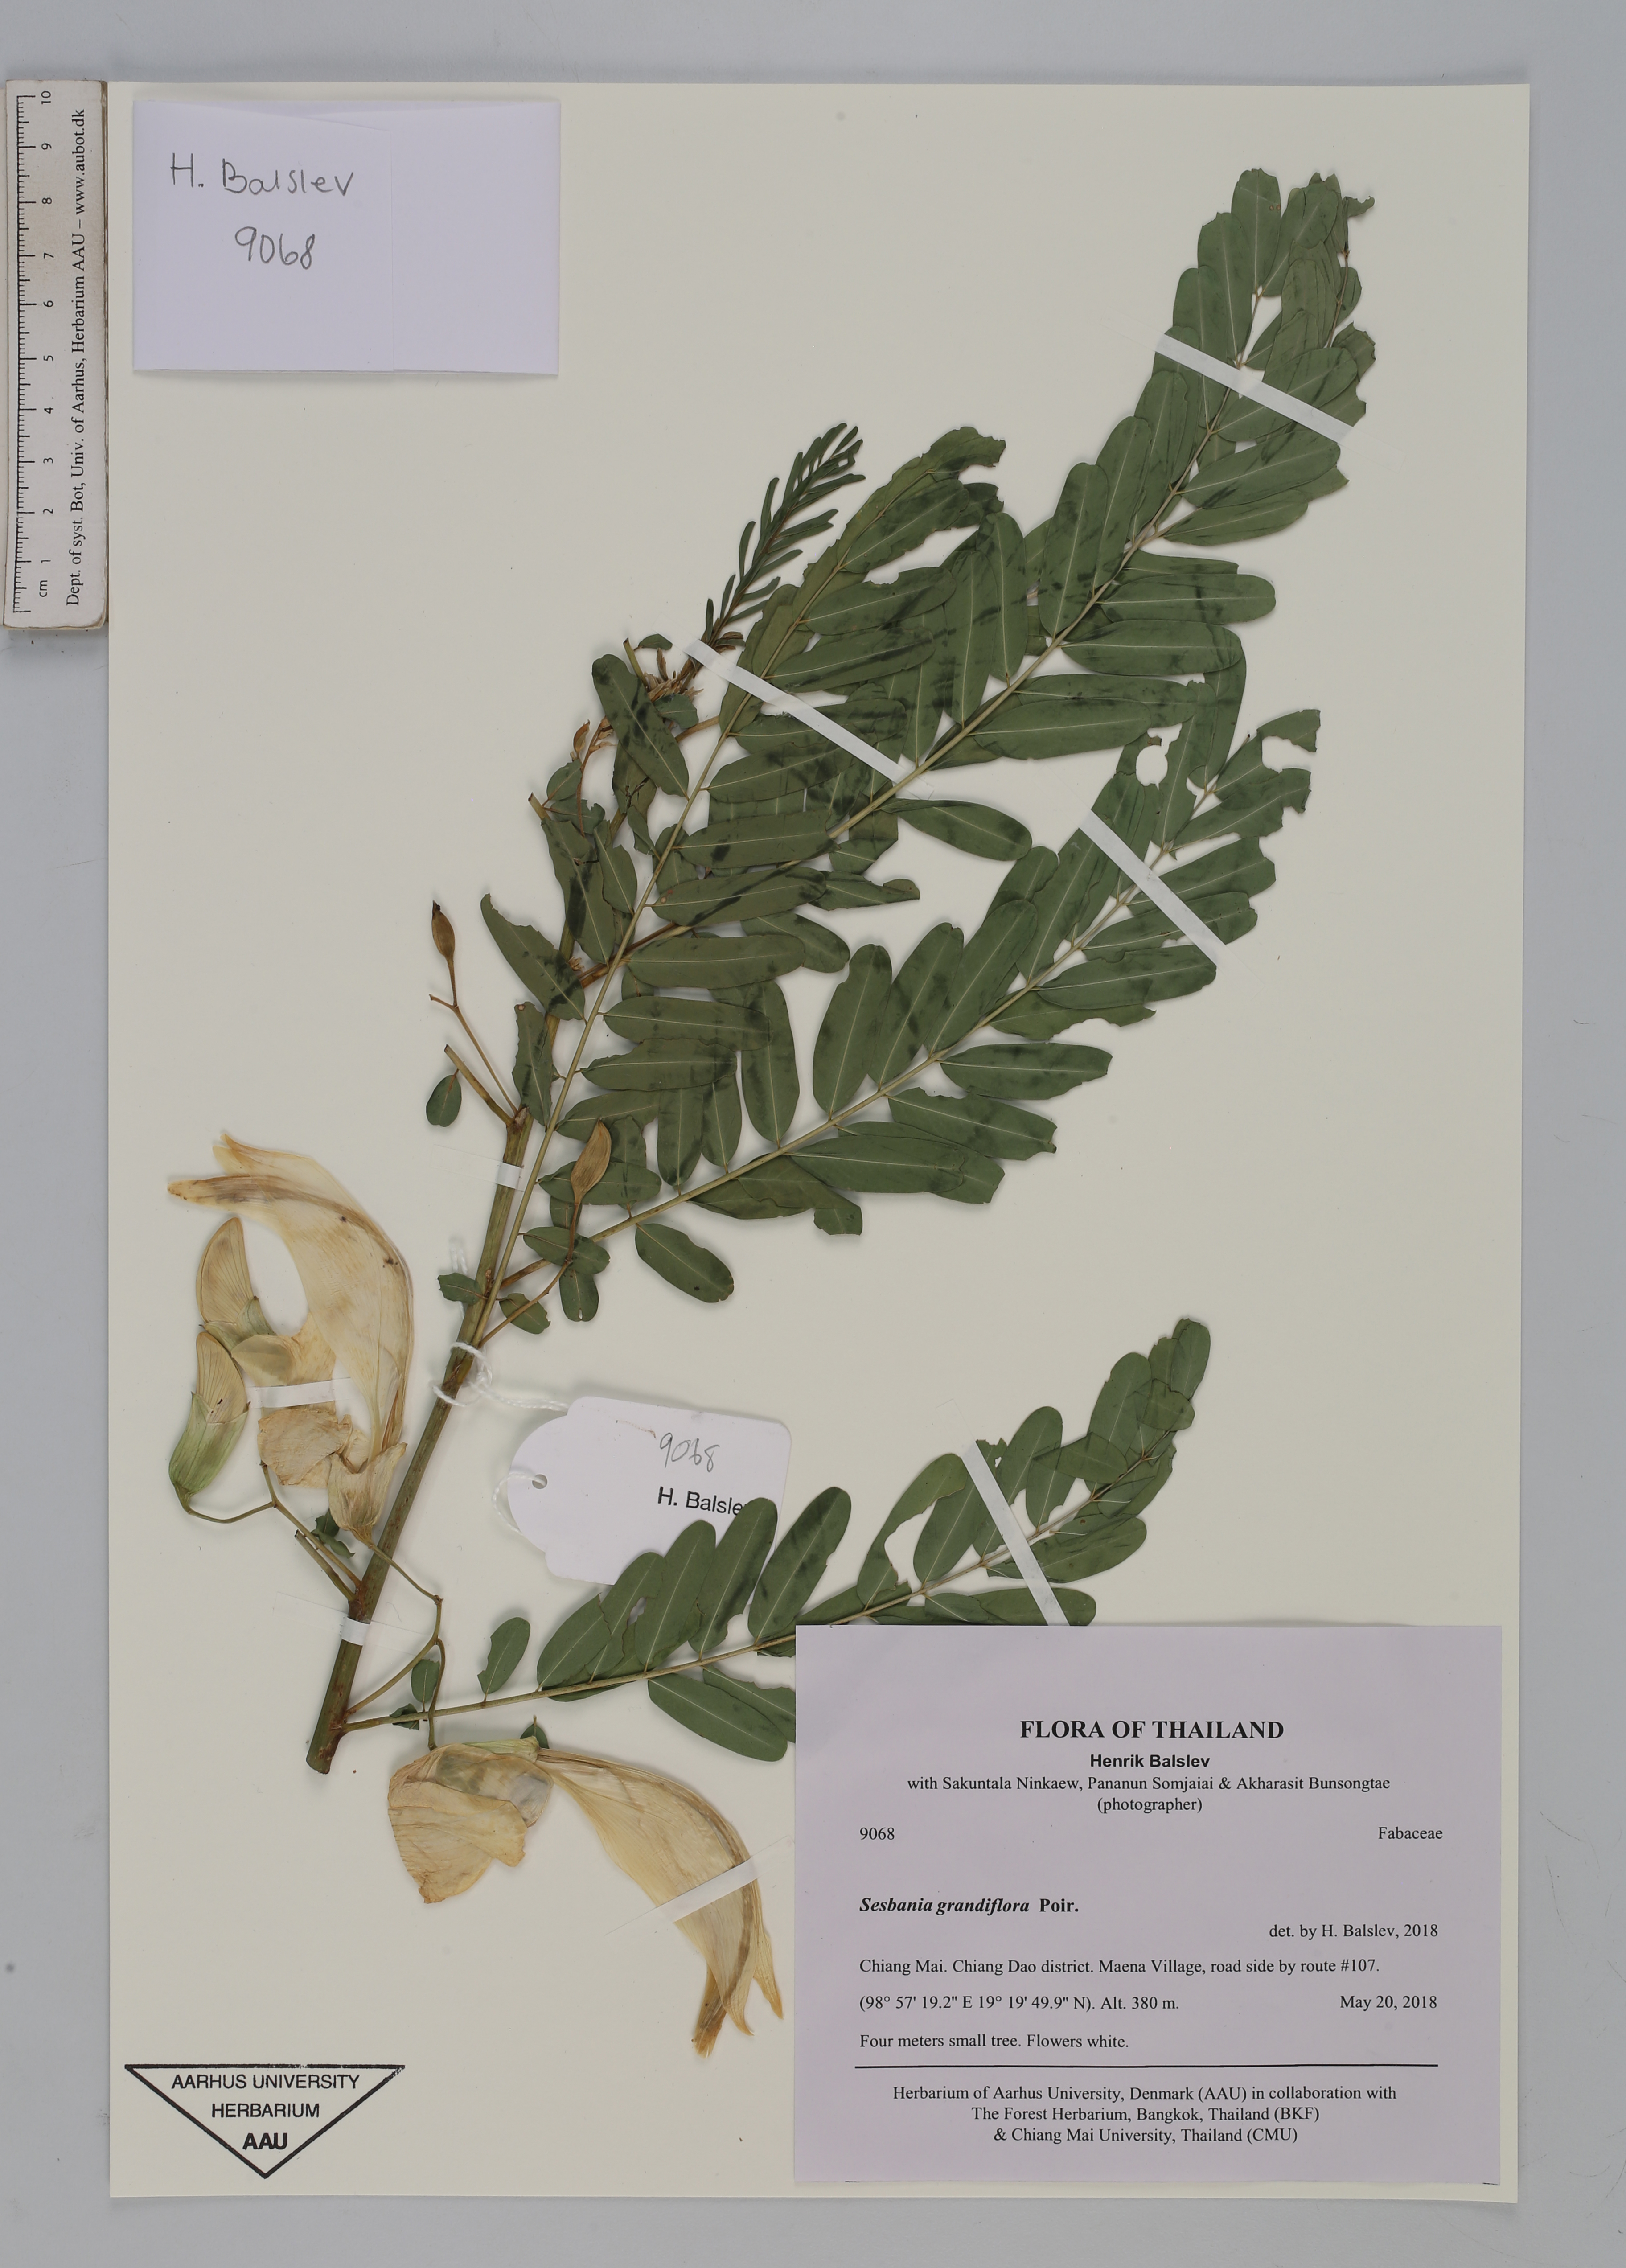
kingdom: Plantae
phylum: Tracheophyta
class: Magnoliopsida
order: Fabales
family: Fabaceae
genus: Sesbania
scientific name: Sesbania grandiflora
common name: Vegetable-hummingbird
